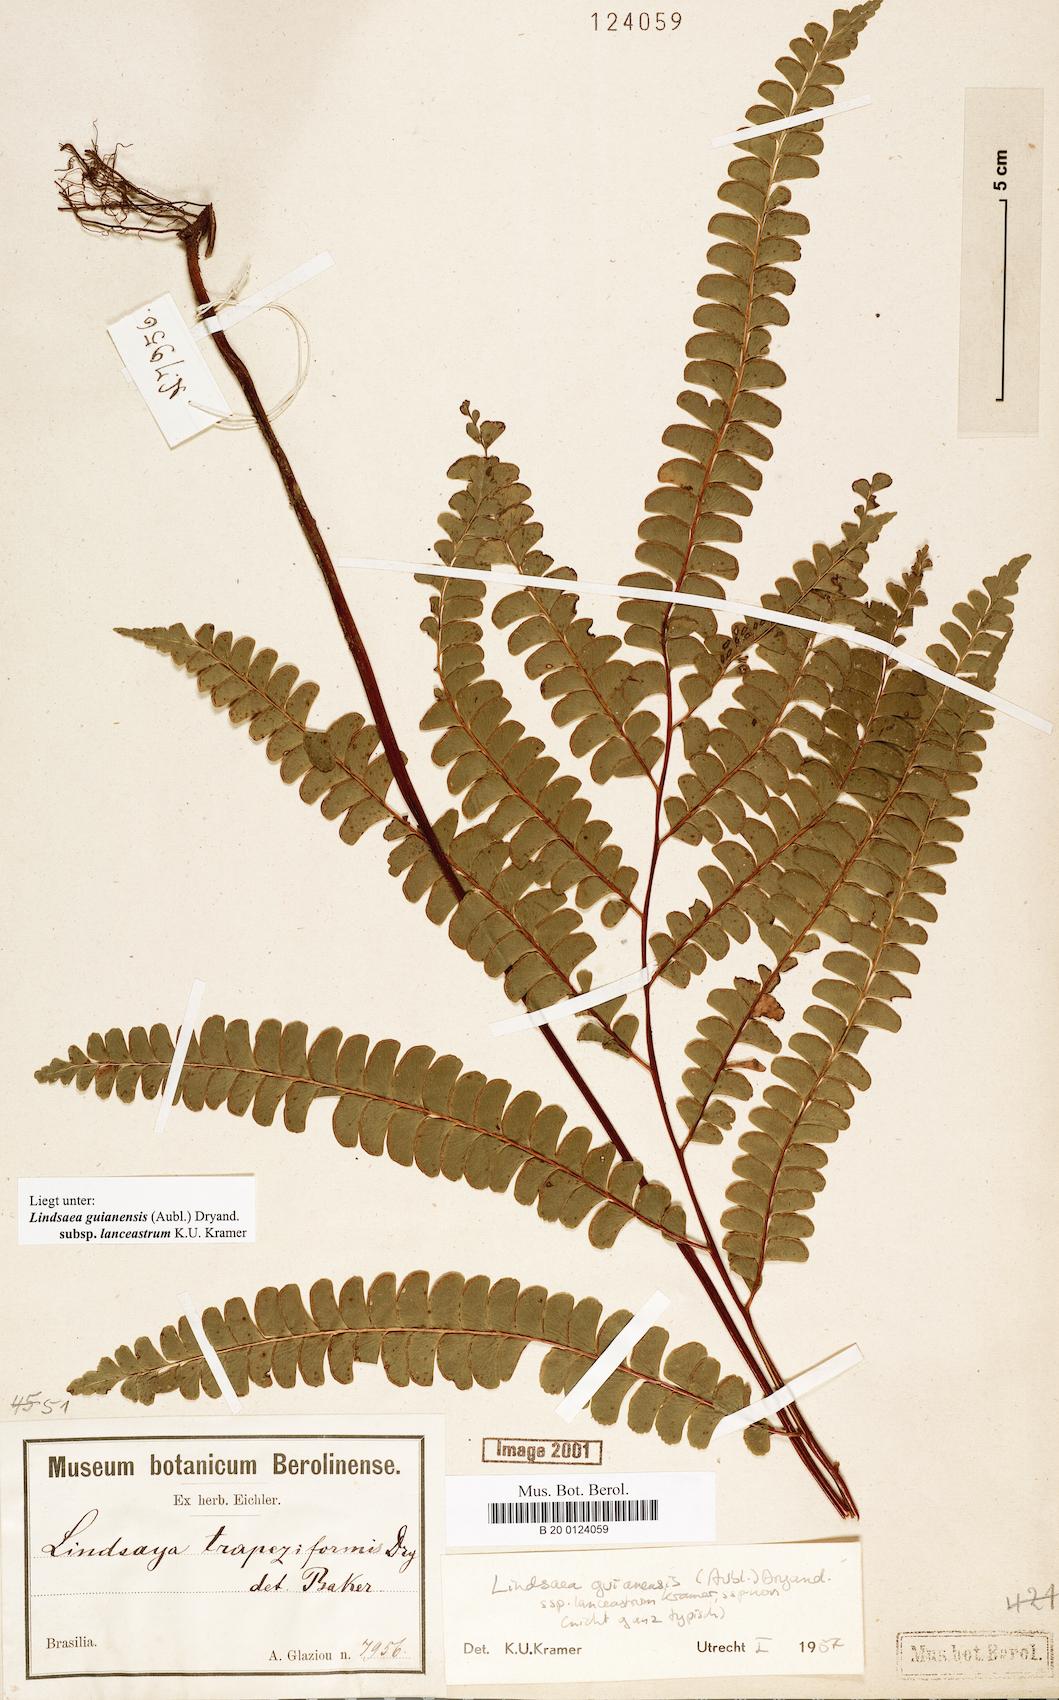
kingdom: Plantae
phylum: Tracheophyta
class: Polypodiopsida
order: Polypodiales
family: Lindsaeaceae
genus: Lindsaea
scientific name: Lindsaea guianensis
